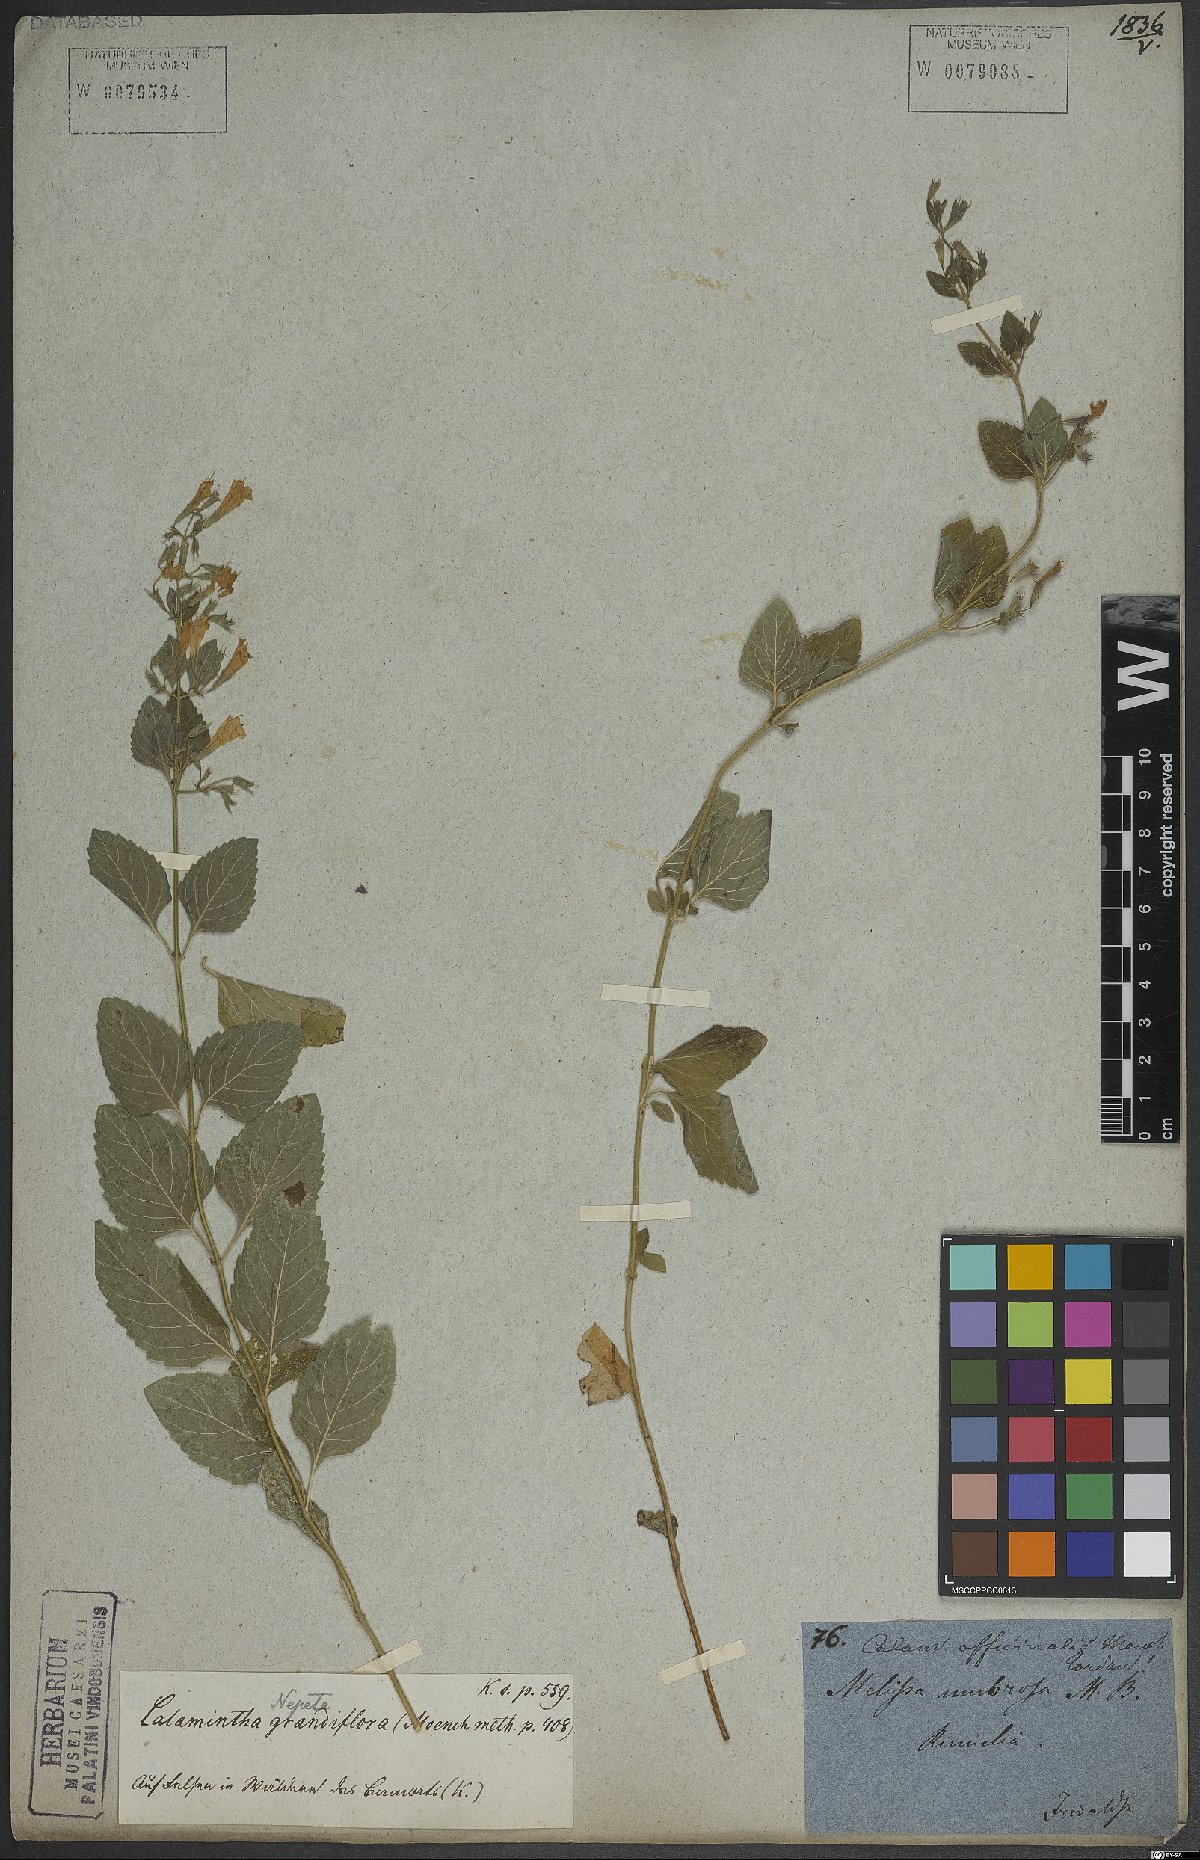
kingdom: Plantae
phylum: Tracheophyta
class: Magnoliopsida
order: Lamiales
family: Lamiaceae
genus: Clinopodium
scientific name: Clinopodium menthifolium
